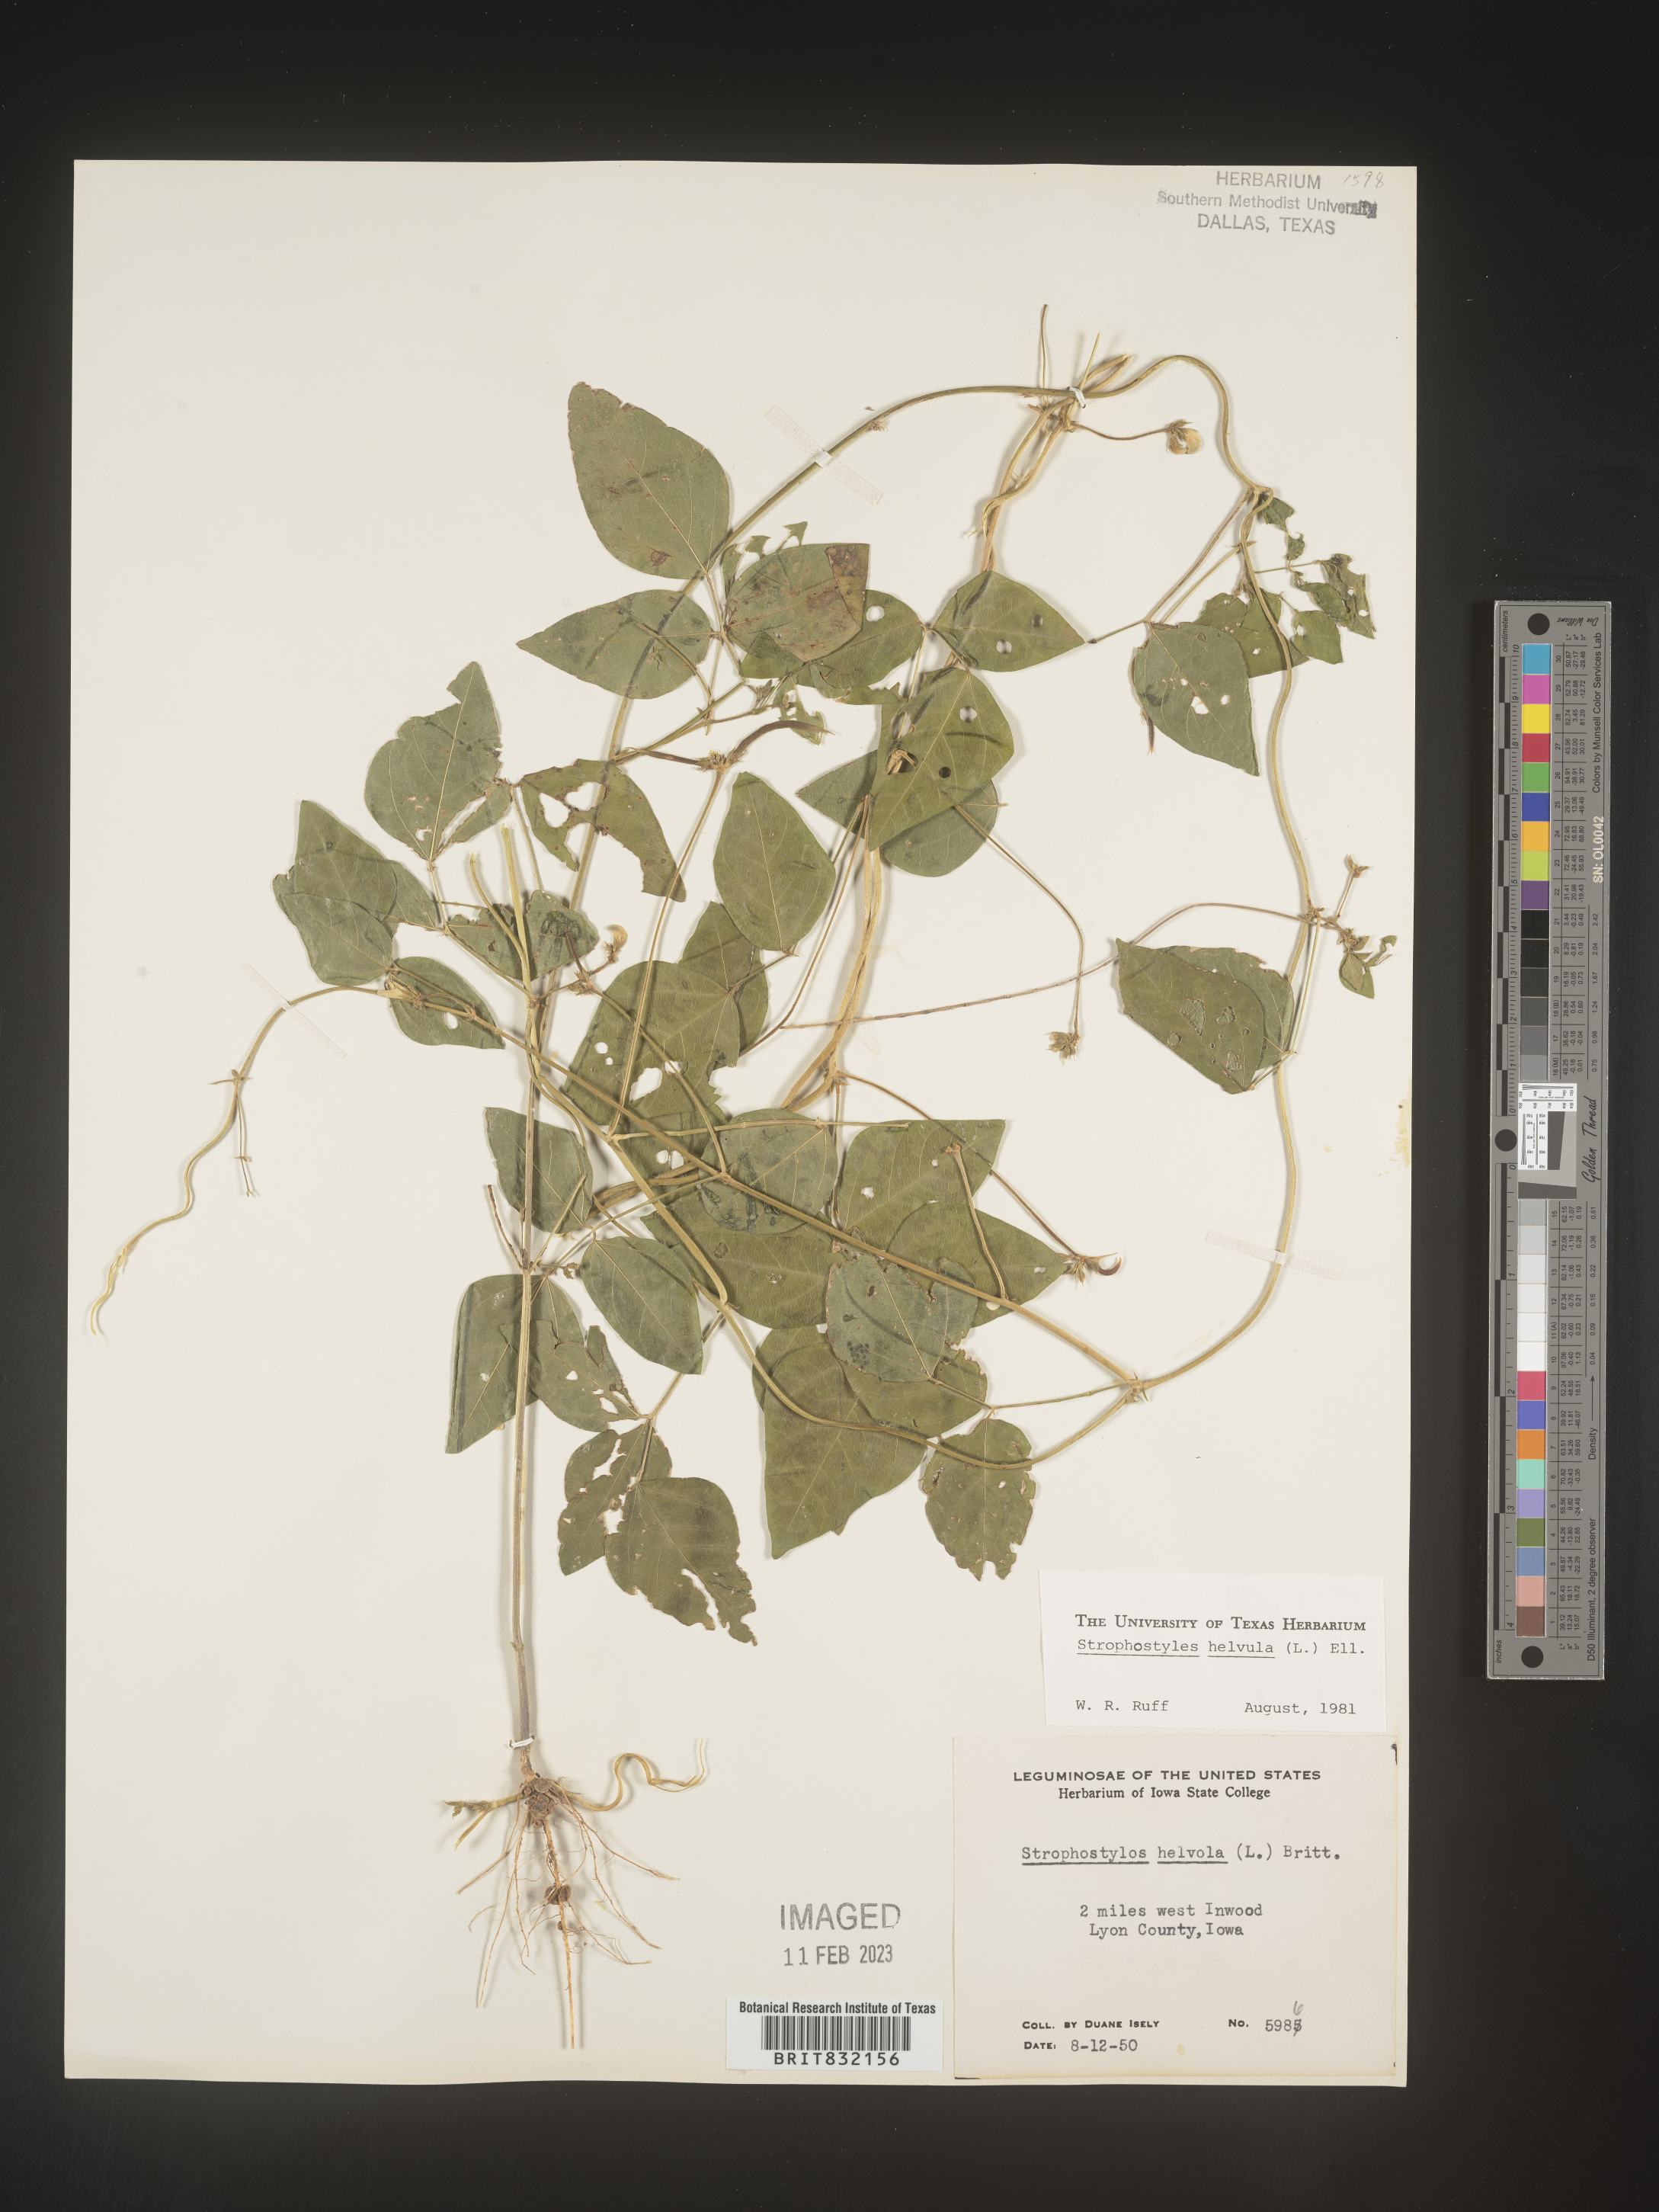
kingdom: Plantae
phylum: Tracheophyta
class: Magnoliopsida
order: Fabales
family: Fabaceae
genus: Strophostyles
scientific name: Strophostyles helvola
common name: Trailing wild bean
